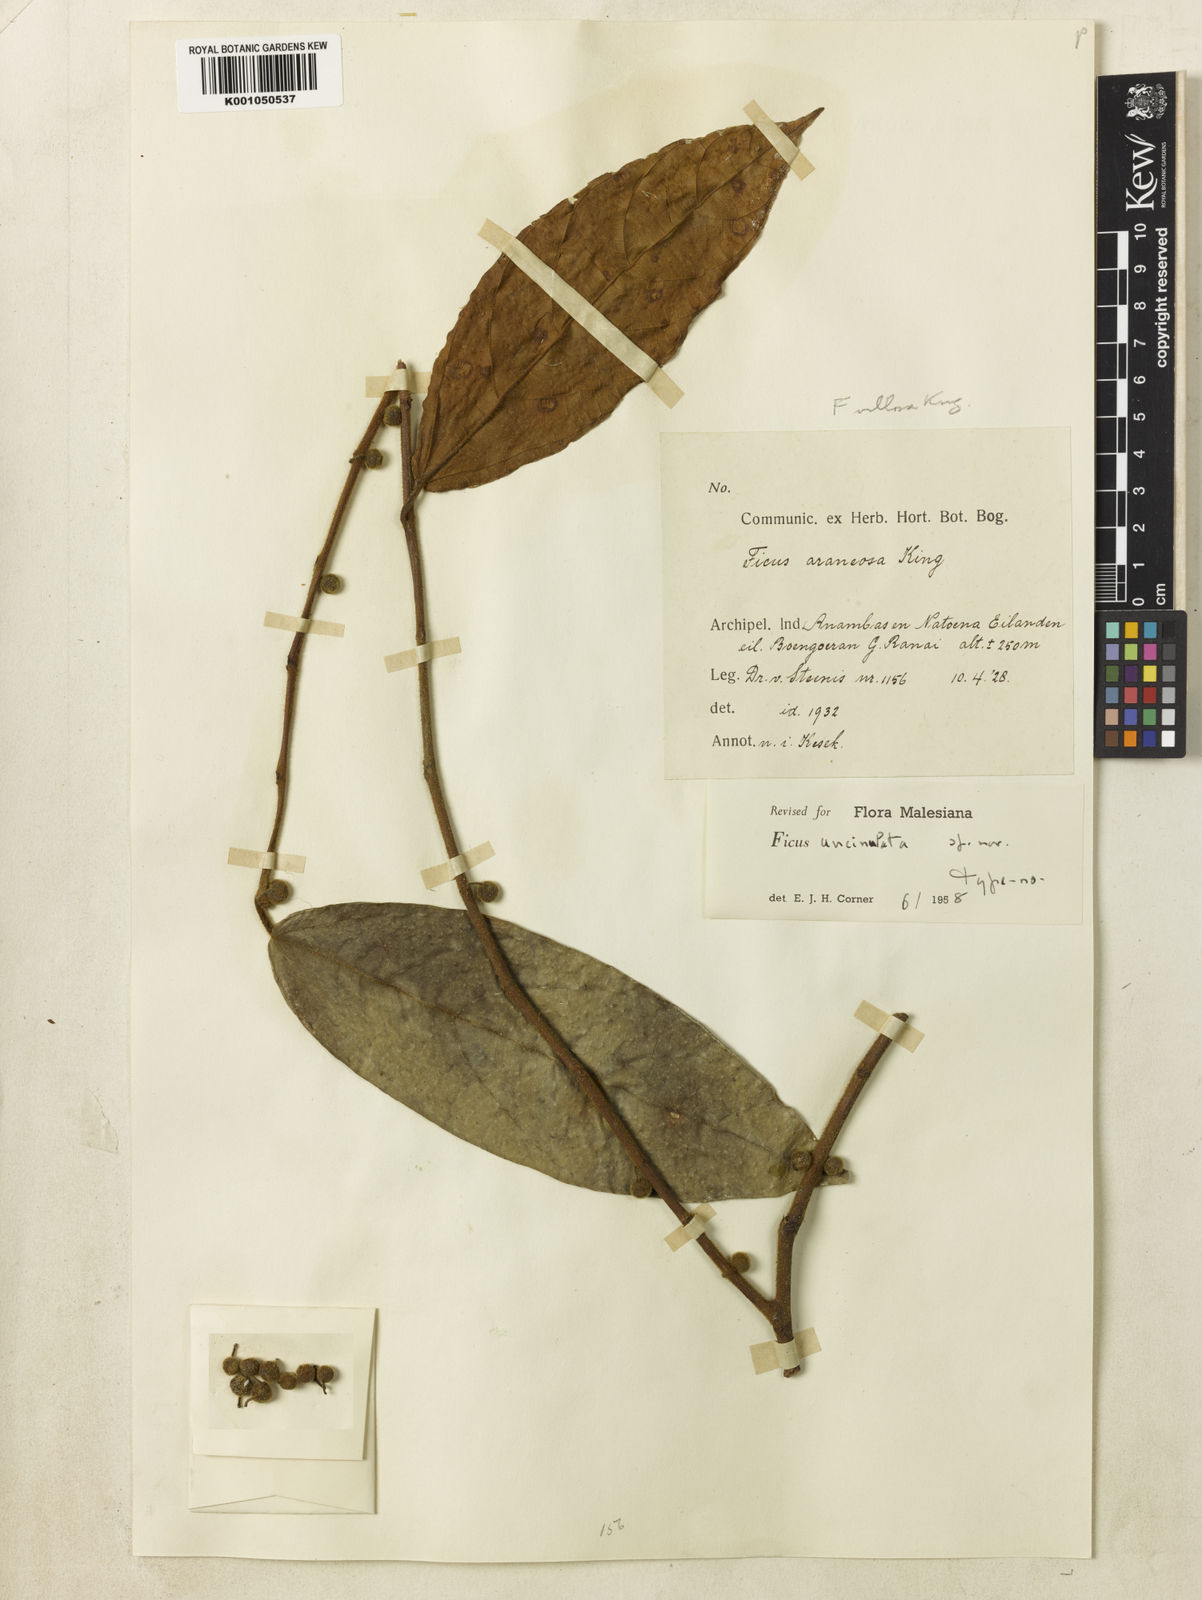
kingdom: Plantae
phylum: Tracheophyta
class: Magnoliopsida
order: Rosales
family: Moraceae
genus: Ficus
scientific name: Ficus uncinata
